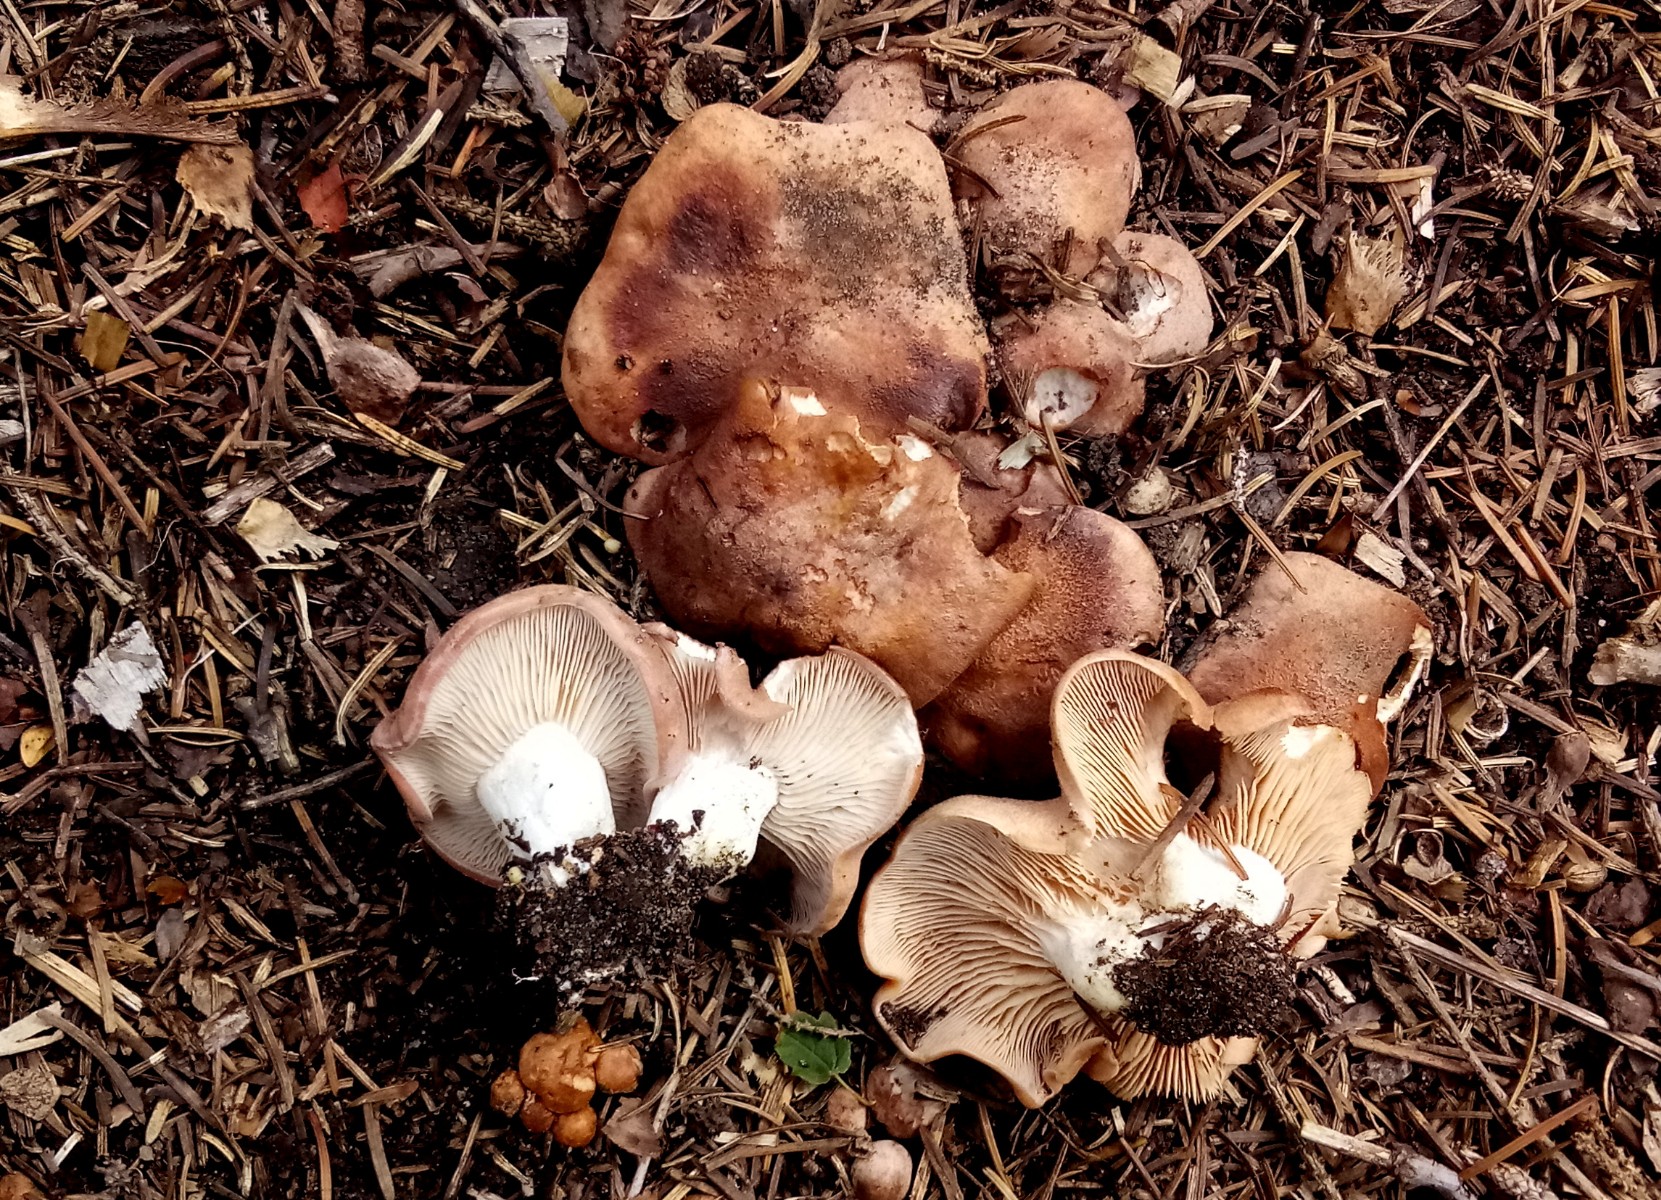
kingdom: Fungi
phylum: Basidiomycota
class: Agaricomycetes
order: Agaricales
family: Entolomataceae
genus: Clitopilus
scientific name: Clitopilus geminus
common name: kødfarvet troldhat
